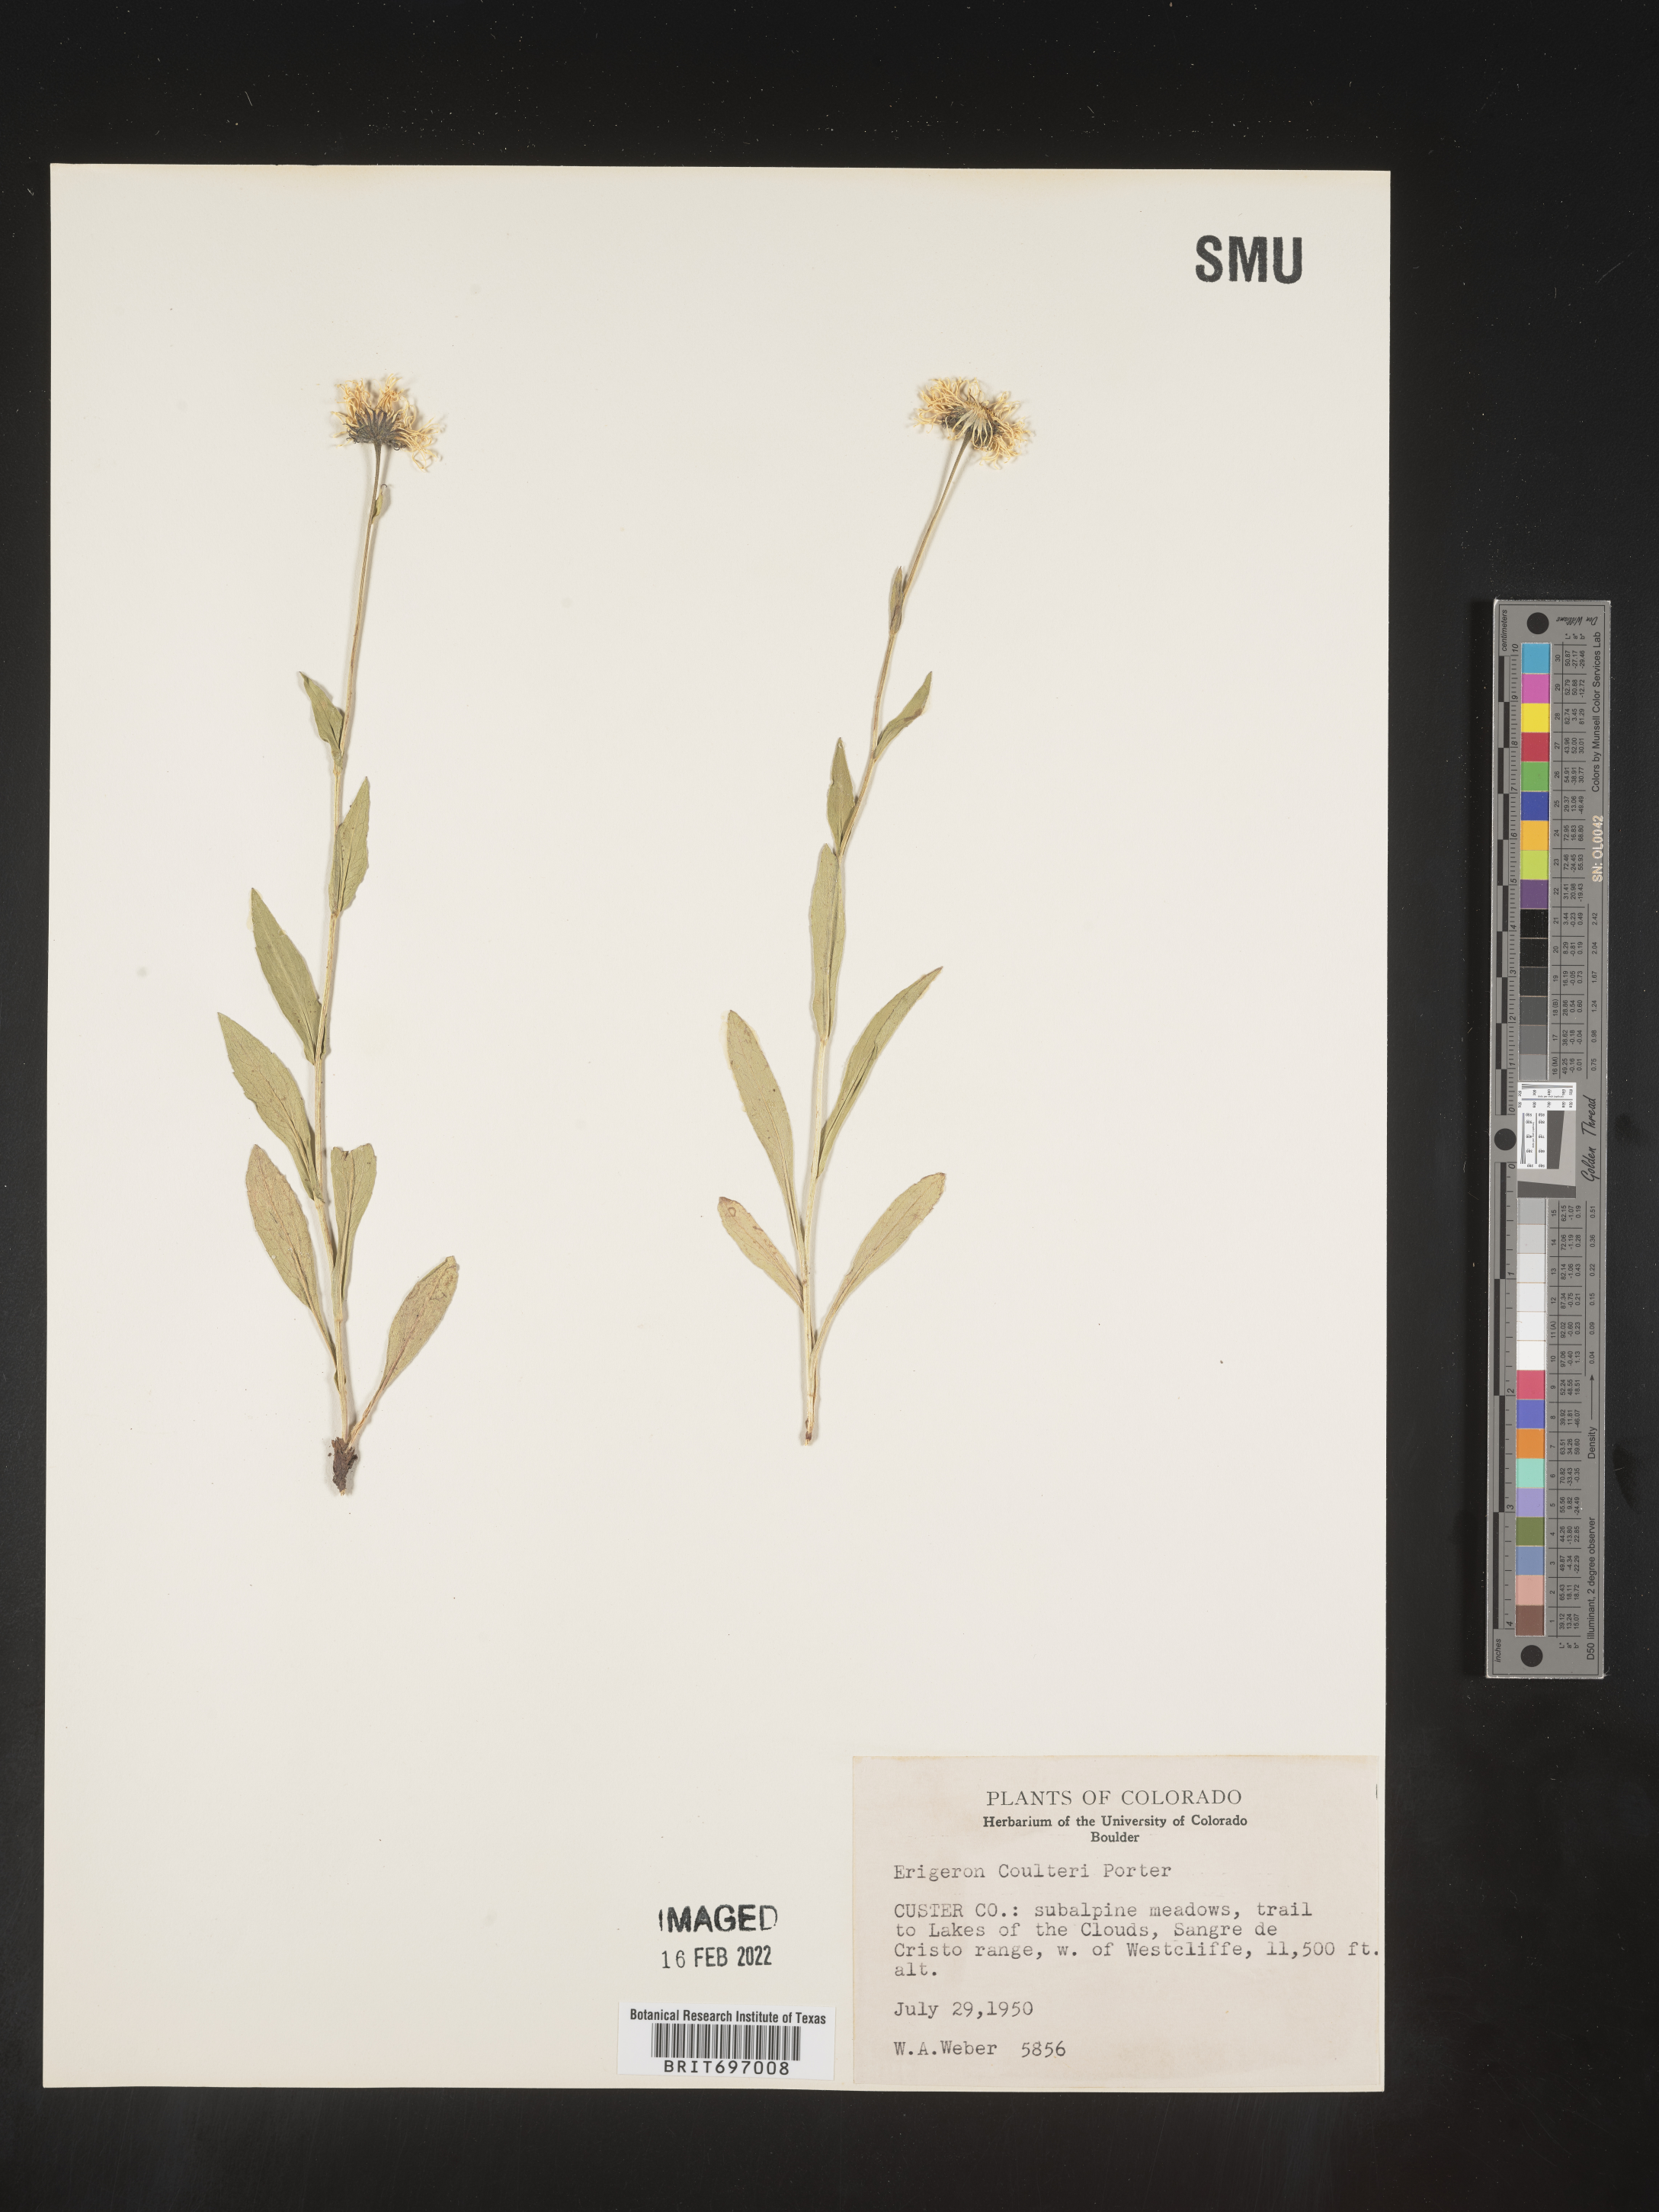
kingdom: Plantae
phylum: Tracheophyta
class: Magnoliopsida
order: Asterales
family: Asteraceae
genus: Erigeron
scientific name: Erigeron coulteri
